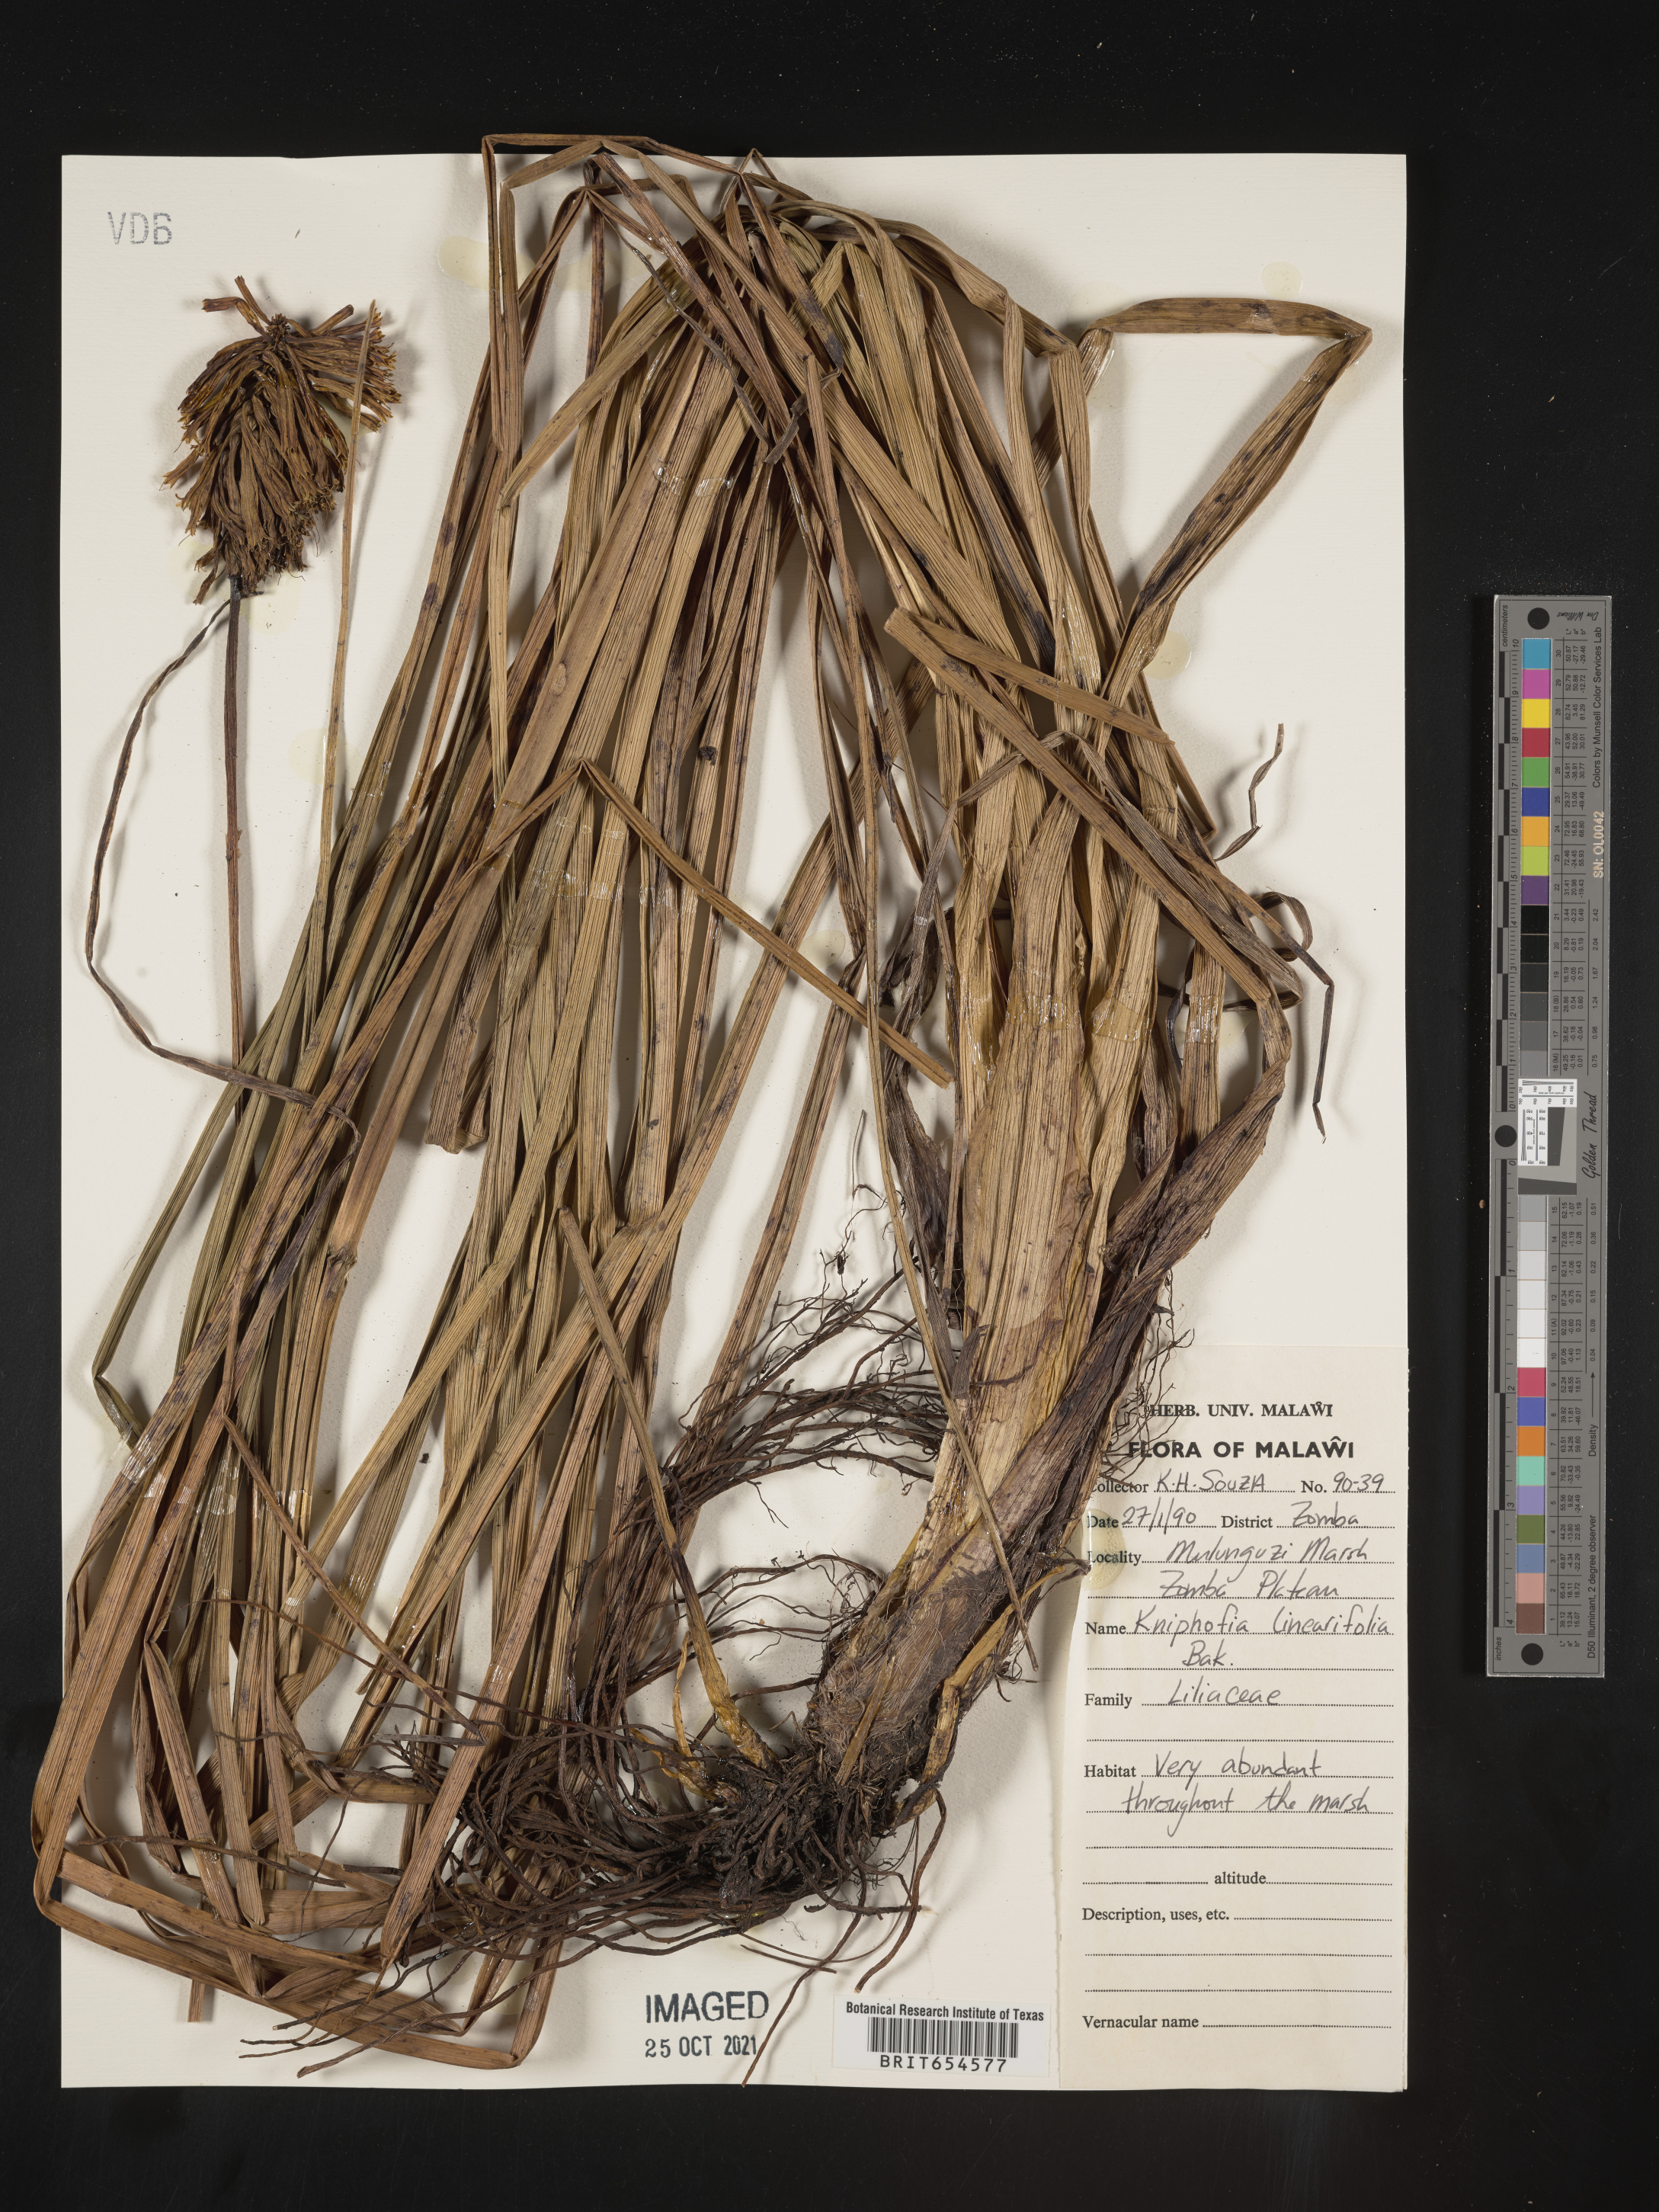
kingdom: Plantae
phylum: Tracheophyta
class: Liliopsida
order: Asparagales
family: Asphodelaceae
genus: Kniphofia
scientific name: Kniphofia linearifolia
